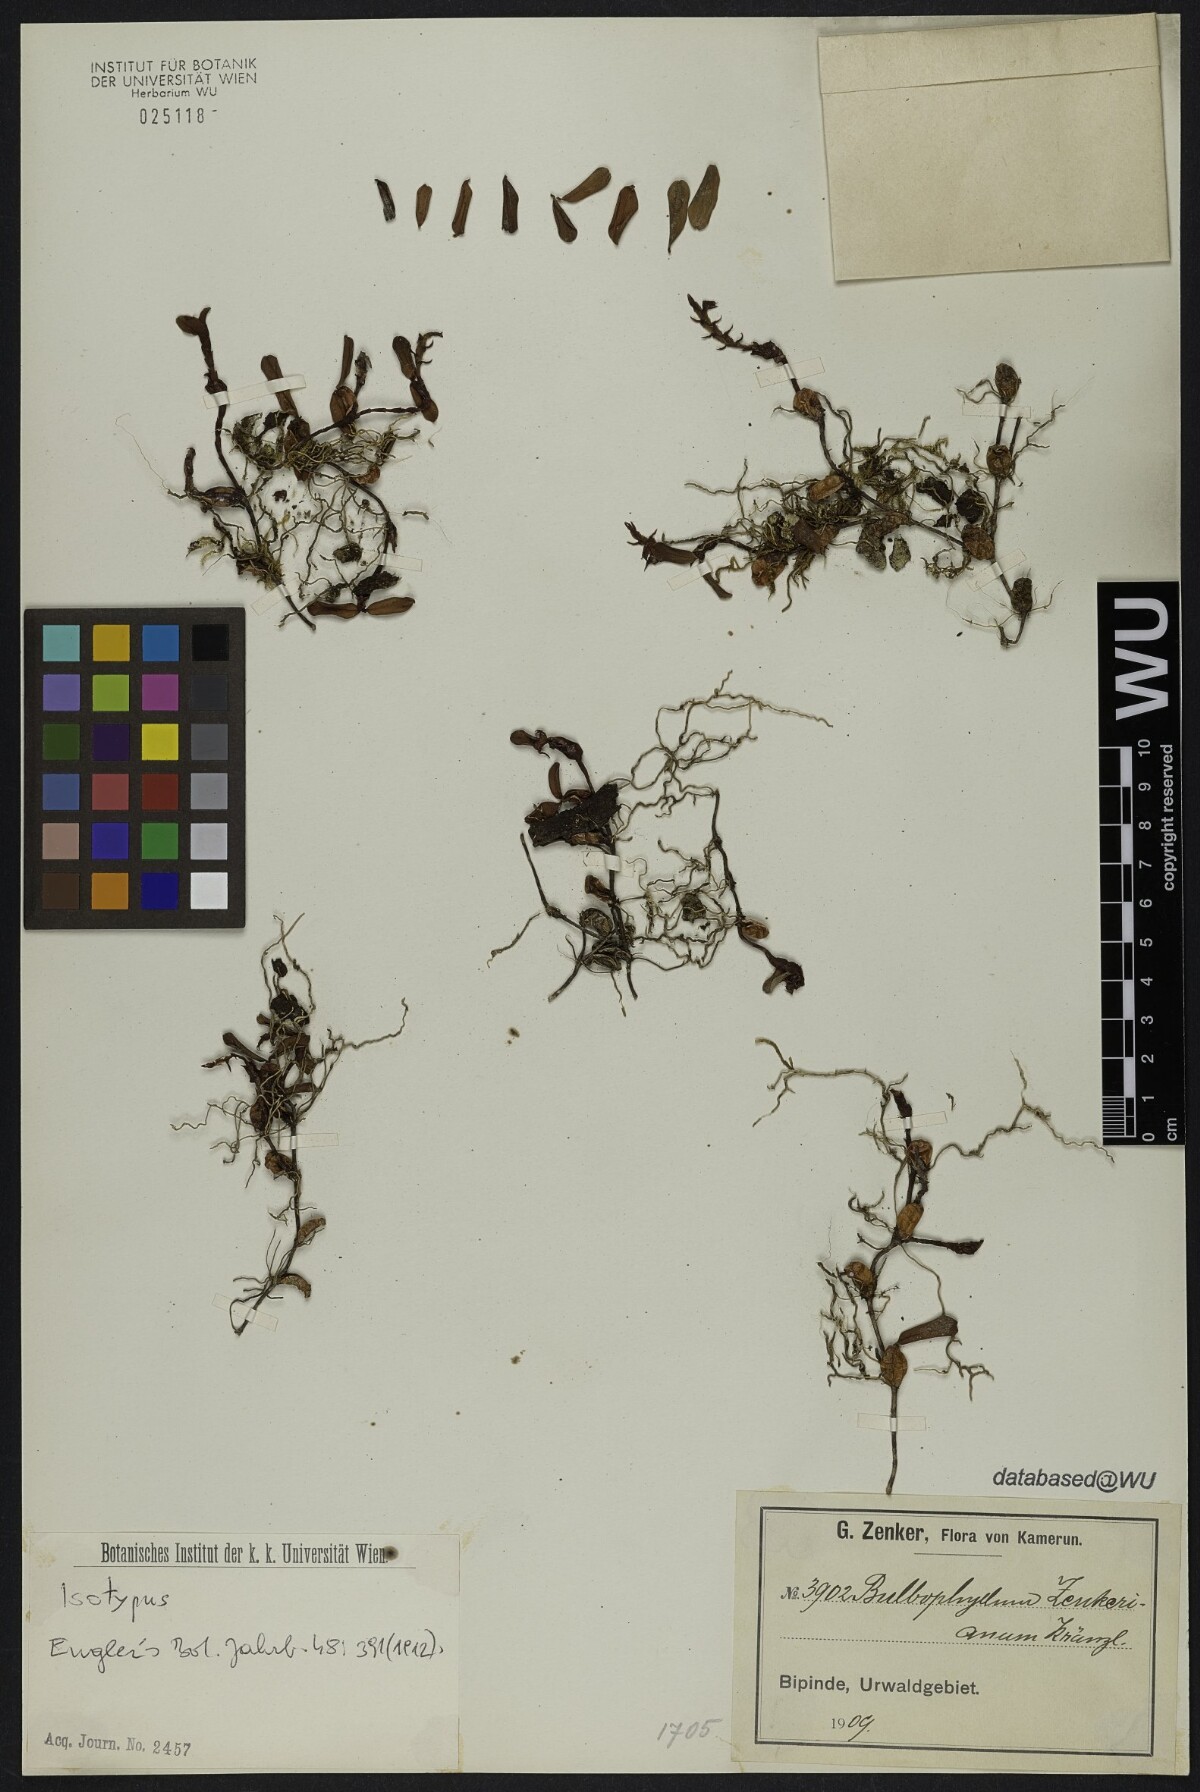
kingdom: Plantae
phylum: Tracheophyta
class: Liliopsida
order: Asparagales
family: Orchidaceae
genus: Bulbophyllum
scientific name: Bulbophyllum oreonastes
